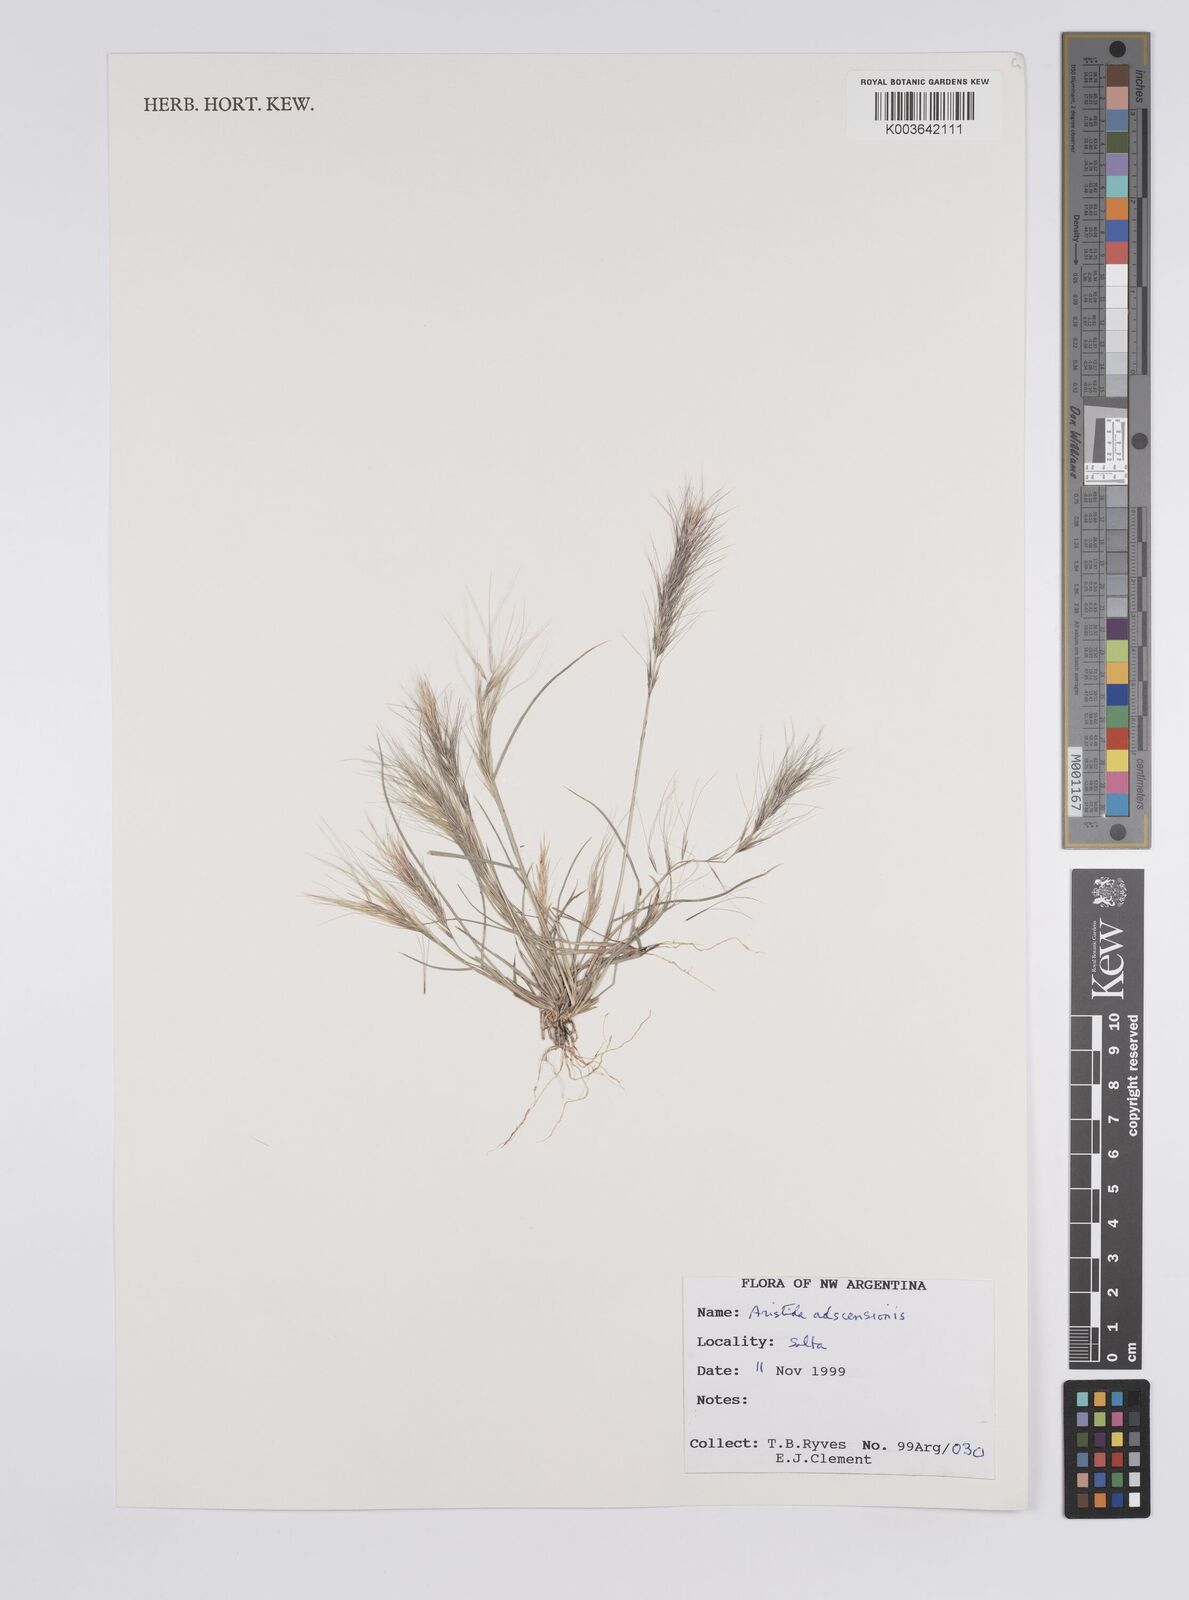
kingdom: Plantae
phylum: Tracheophyta
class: Liliopsida
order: Poales
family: Poaceae
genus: Aristida
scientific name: Aristida adscensionis
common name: Sixweeks threeawn
